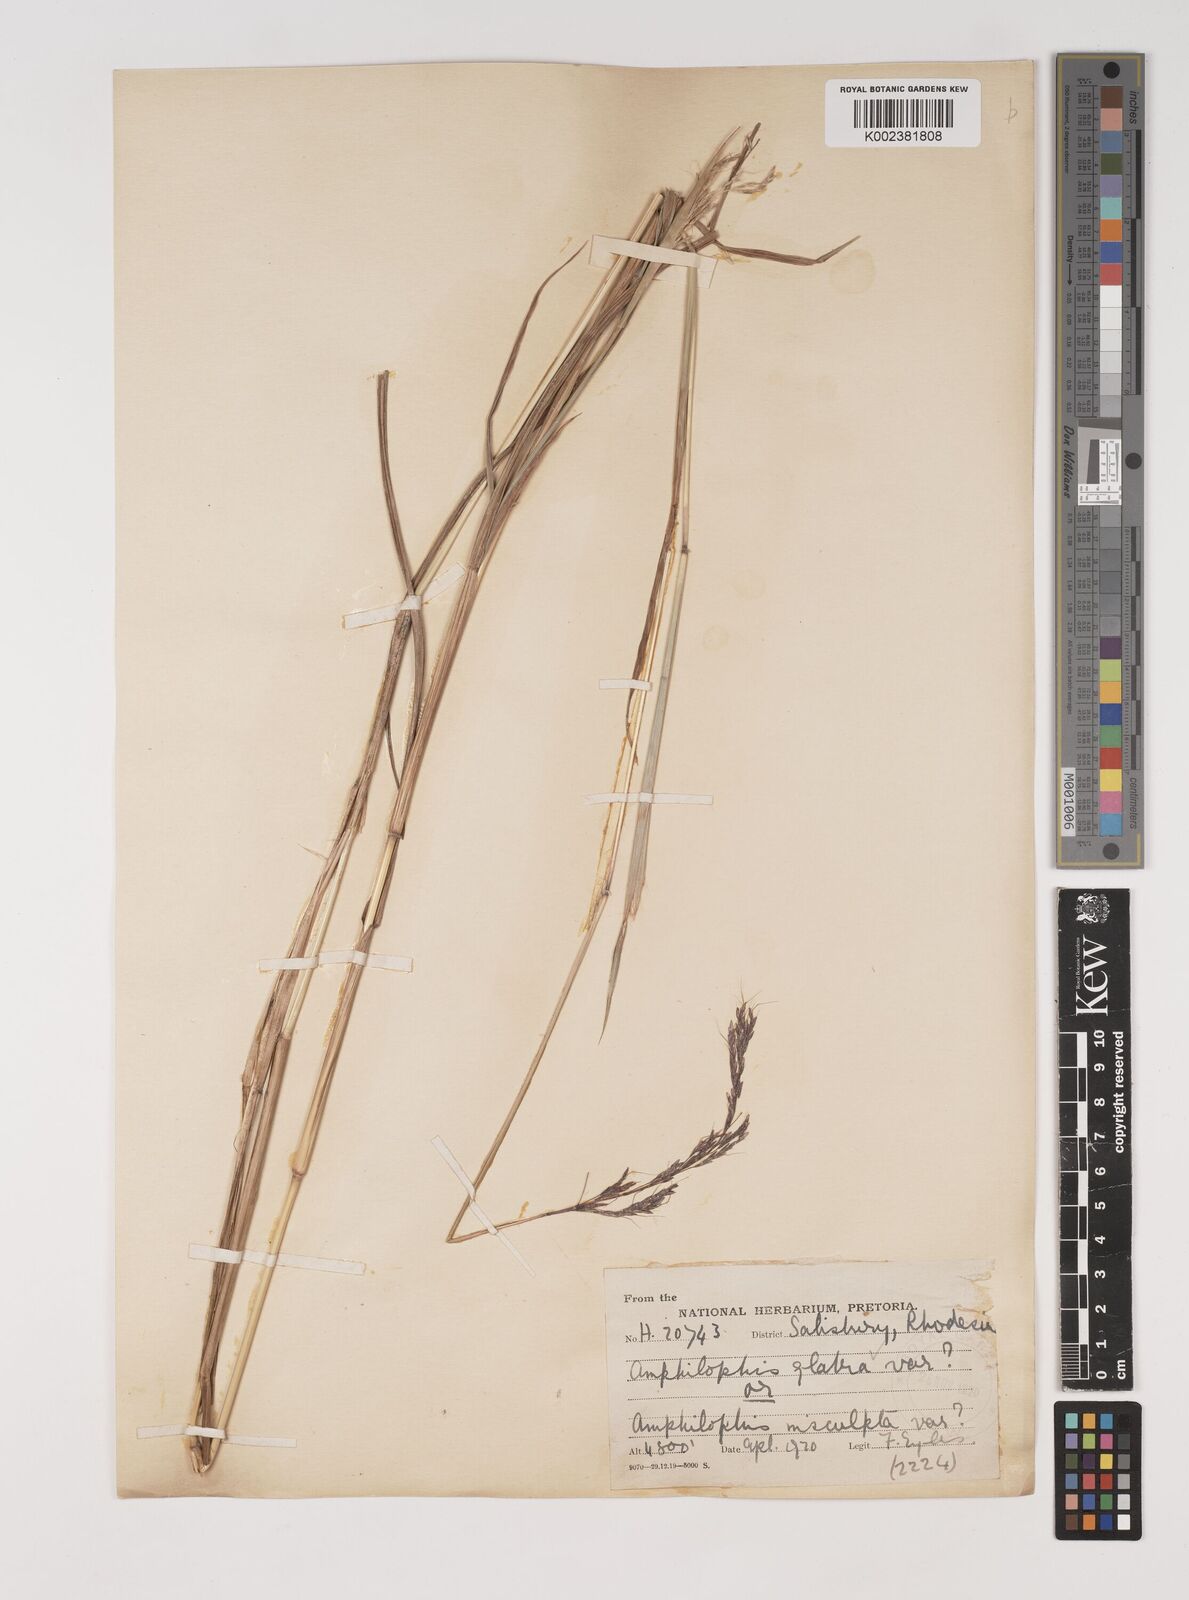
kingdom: Plantae
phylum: Tracheophyta
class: Liliopsida
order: Poales
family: Poaceae
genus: Bothriochloa
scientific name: Bothriochloa bladhii
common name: Caucasian bluestem
